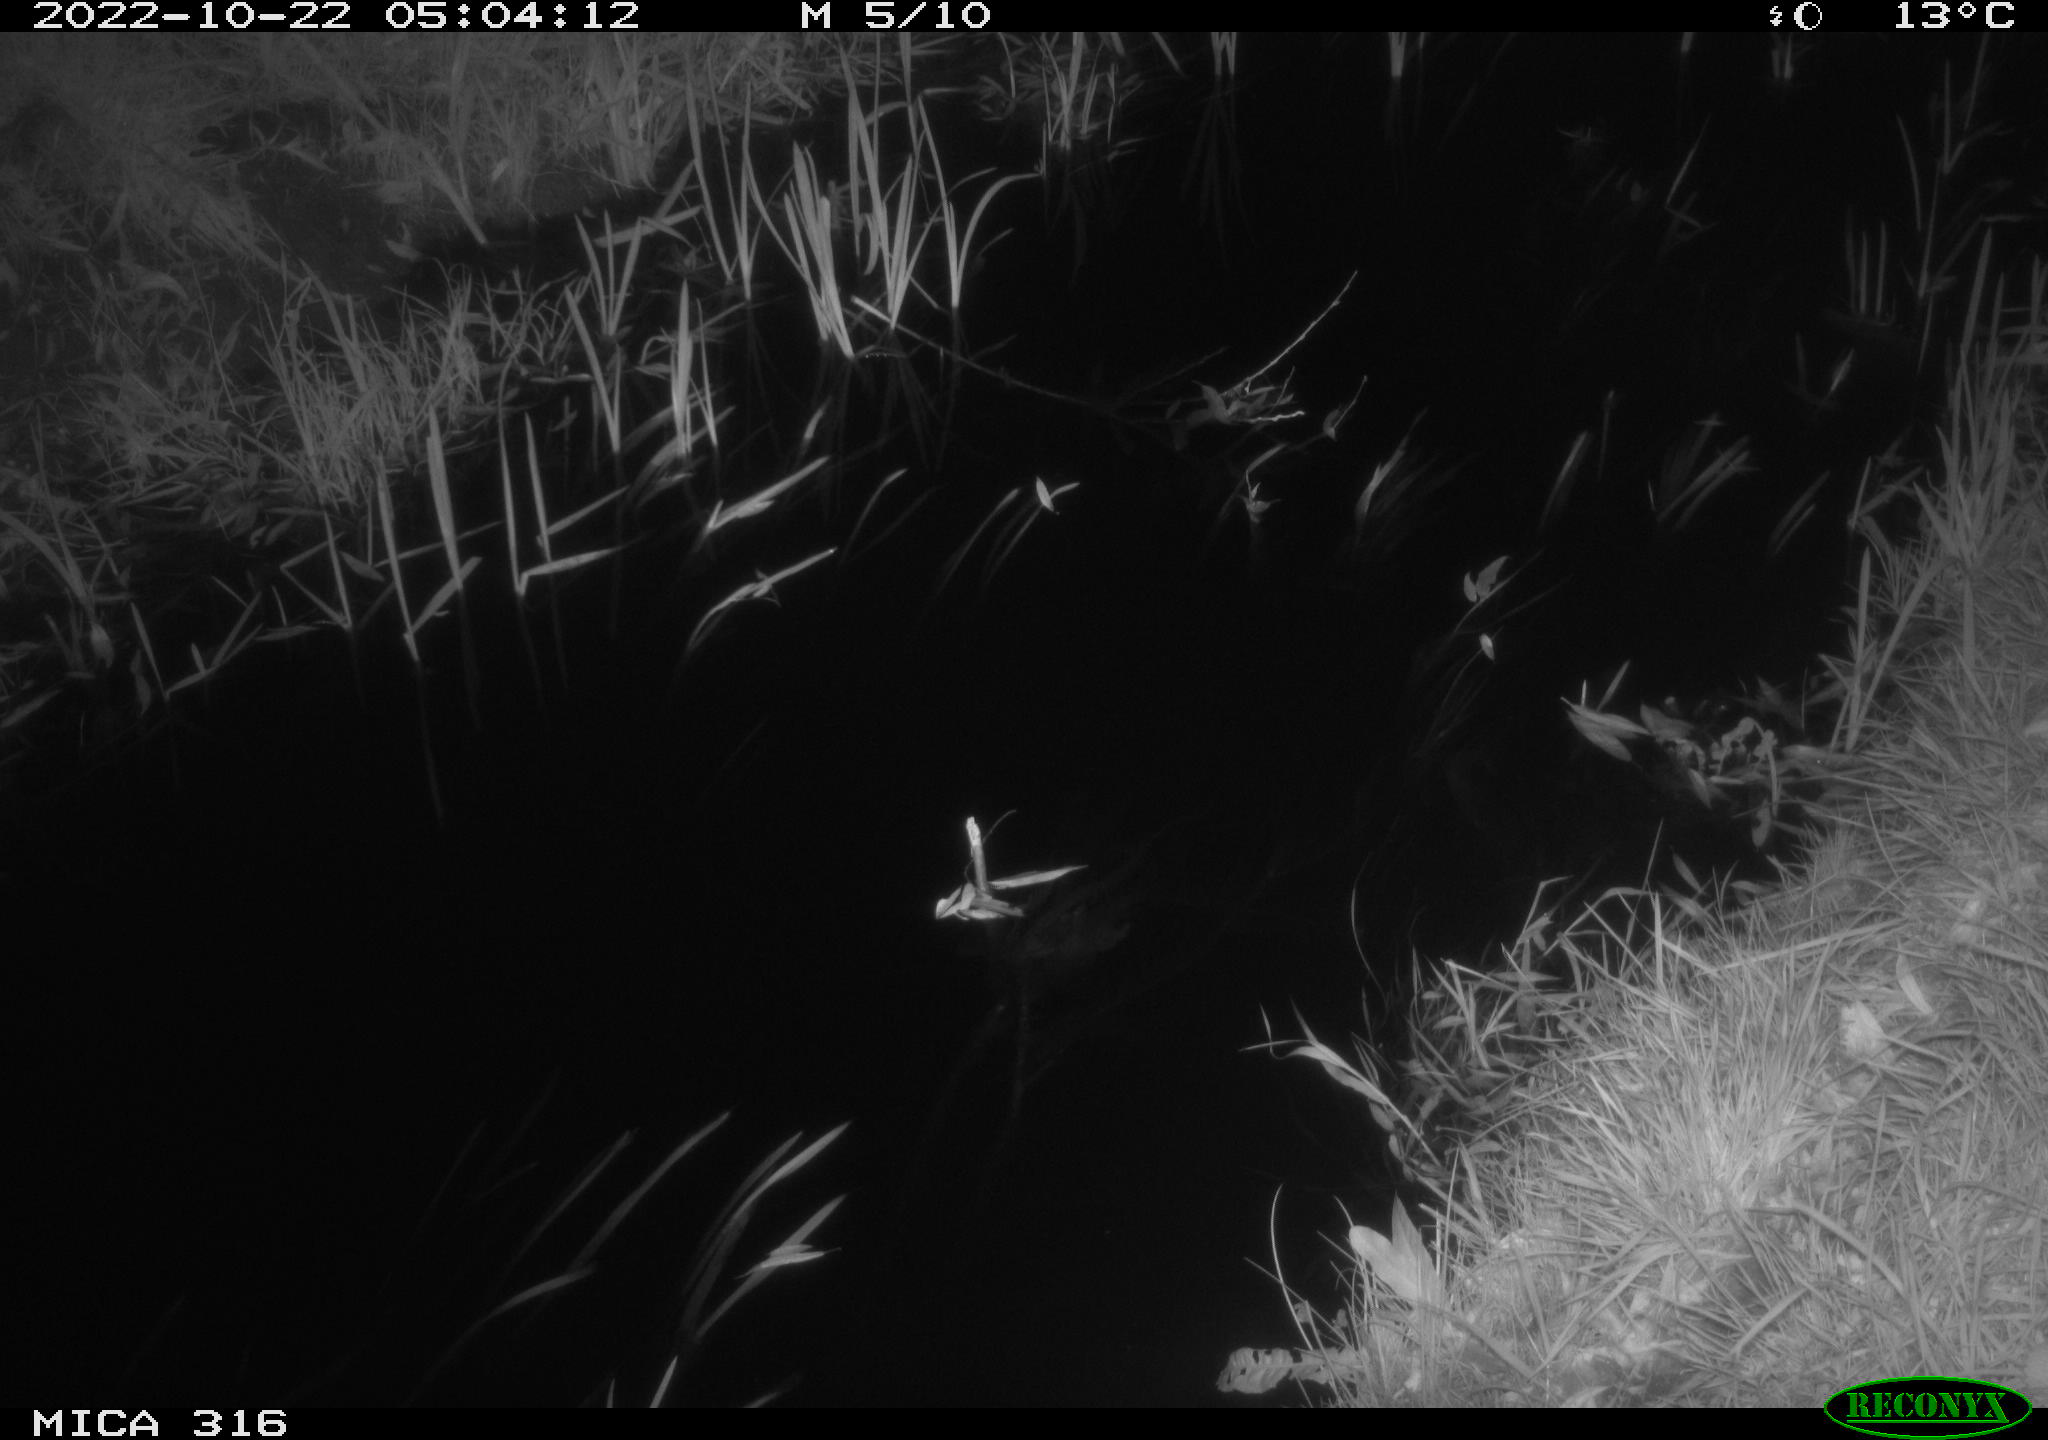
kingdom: Animalia
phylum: Chordata
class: Mammalia
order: Carnivora
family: Canidae
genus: Vulpes
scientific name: Vulpes vulpes
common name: Red fox
